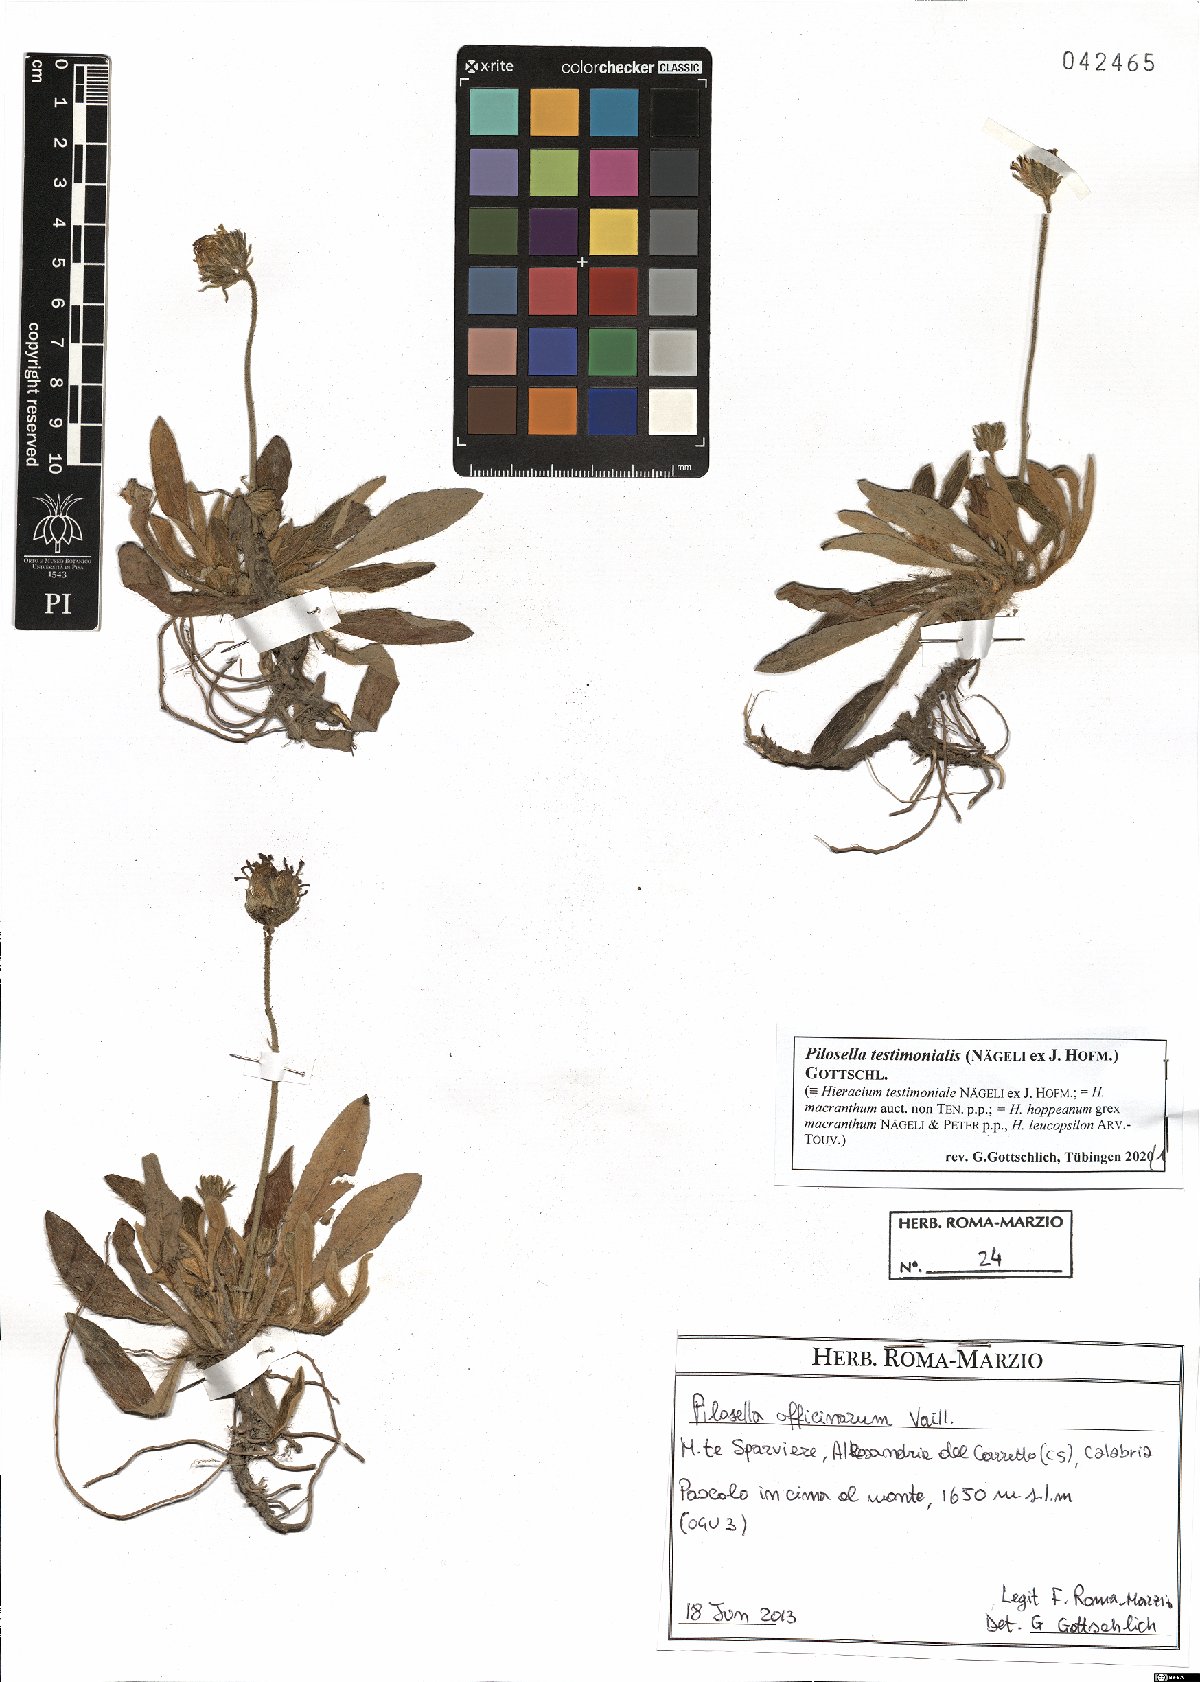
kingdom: Plantae
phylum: Tracheophyta
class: Magnoliopsida
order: Asterales
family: Asteraceae
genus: Pilosella
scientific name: Pilosella leucopsilon
